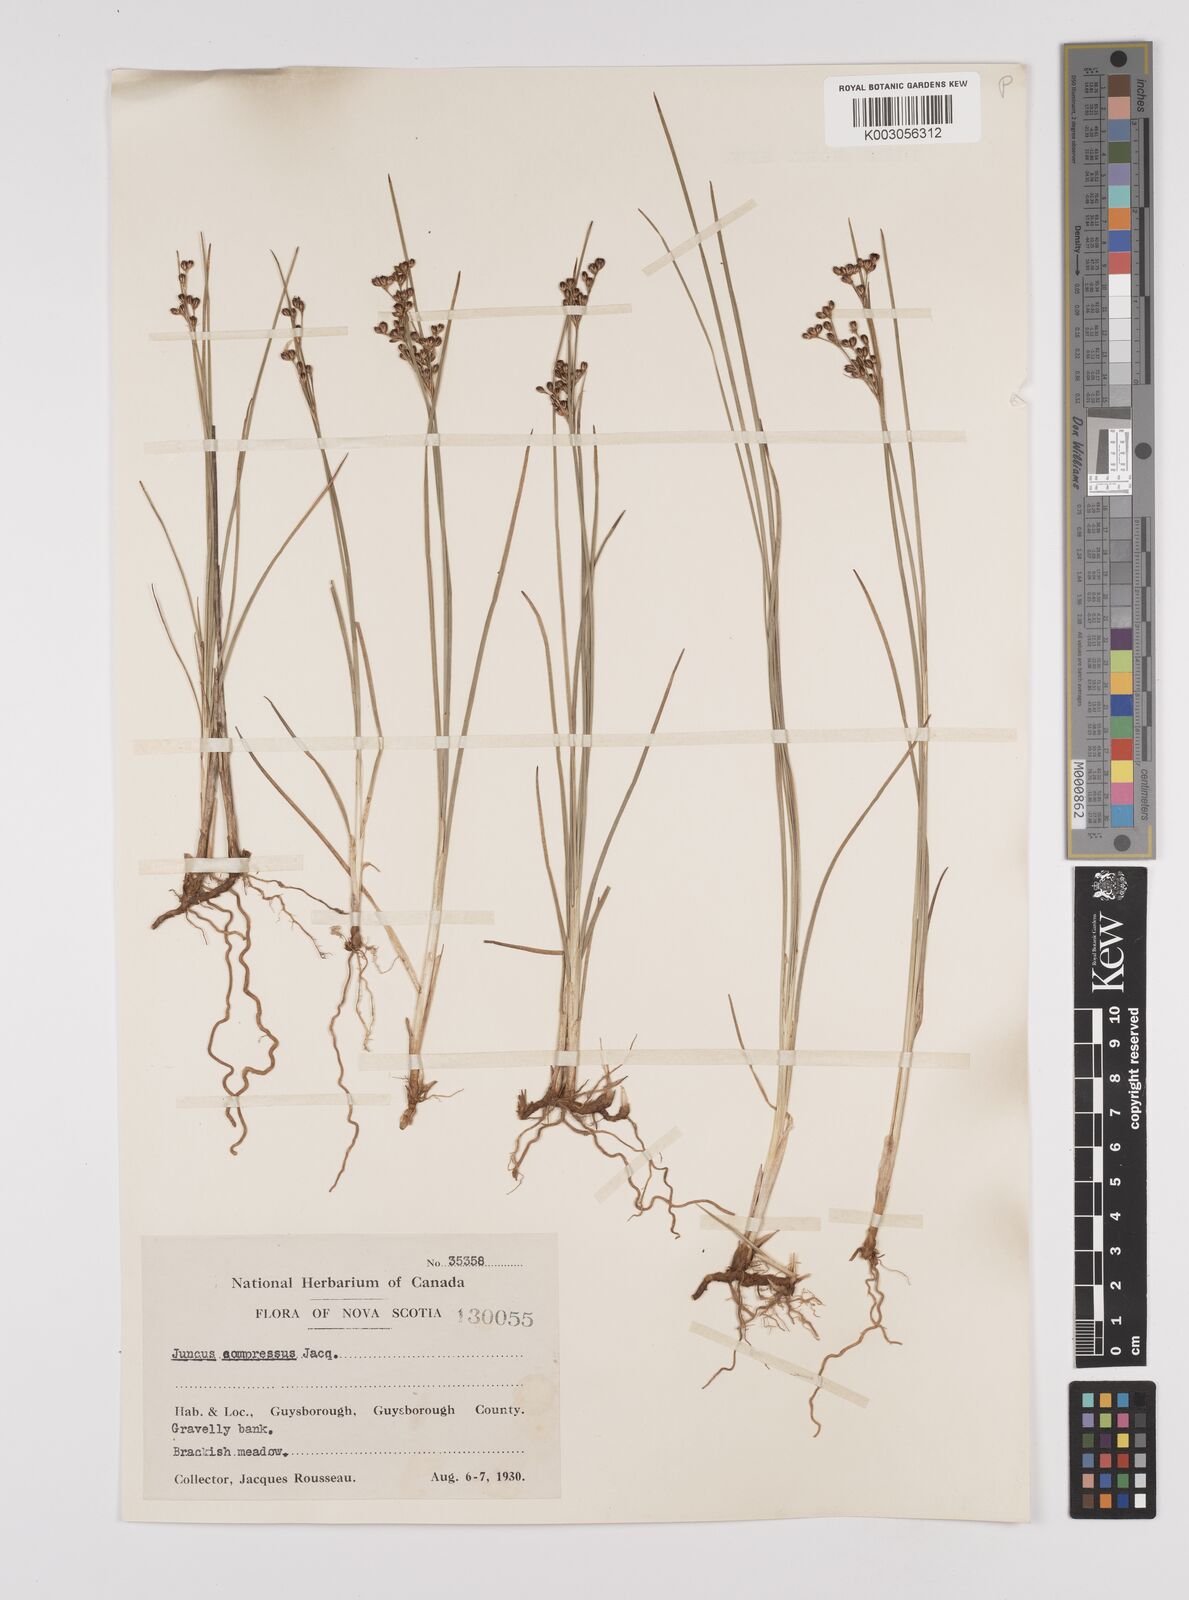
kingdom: Plantae
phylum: Tracheophyta
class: Liliopsida
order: Poales
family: Juncaceae
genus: Juncus
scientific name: Juncus compressus
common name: Round-fruited rush
